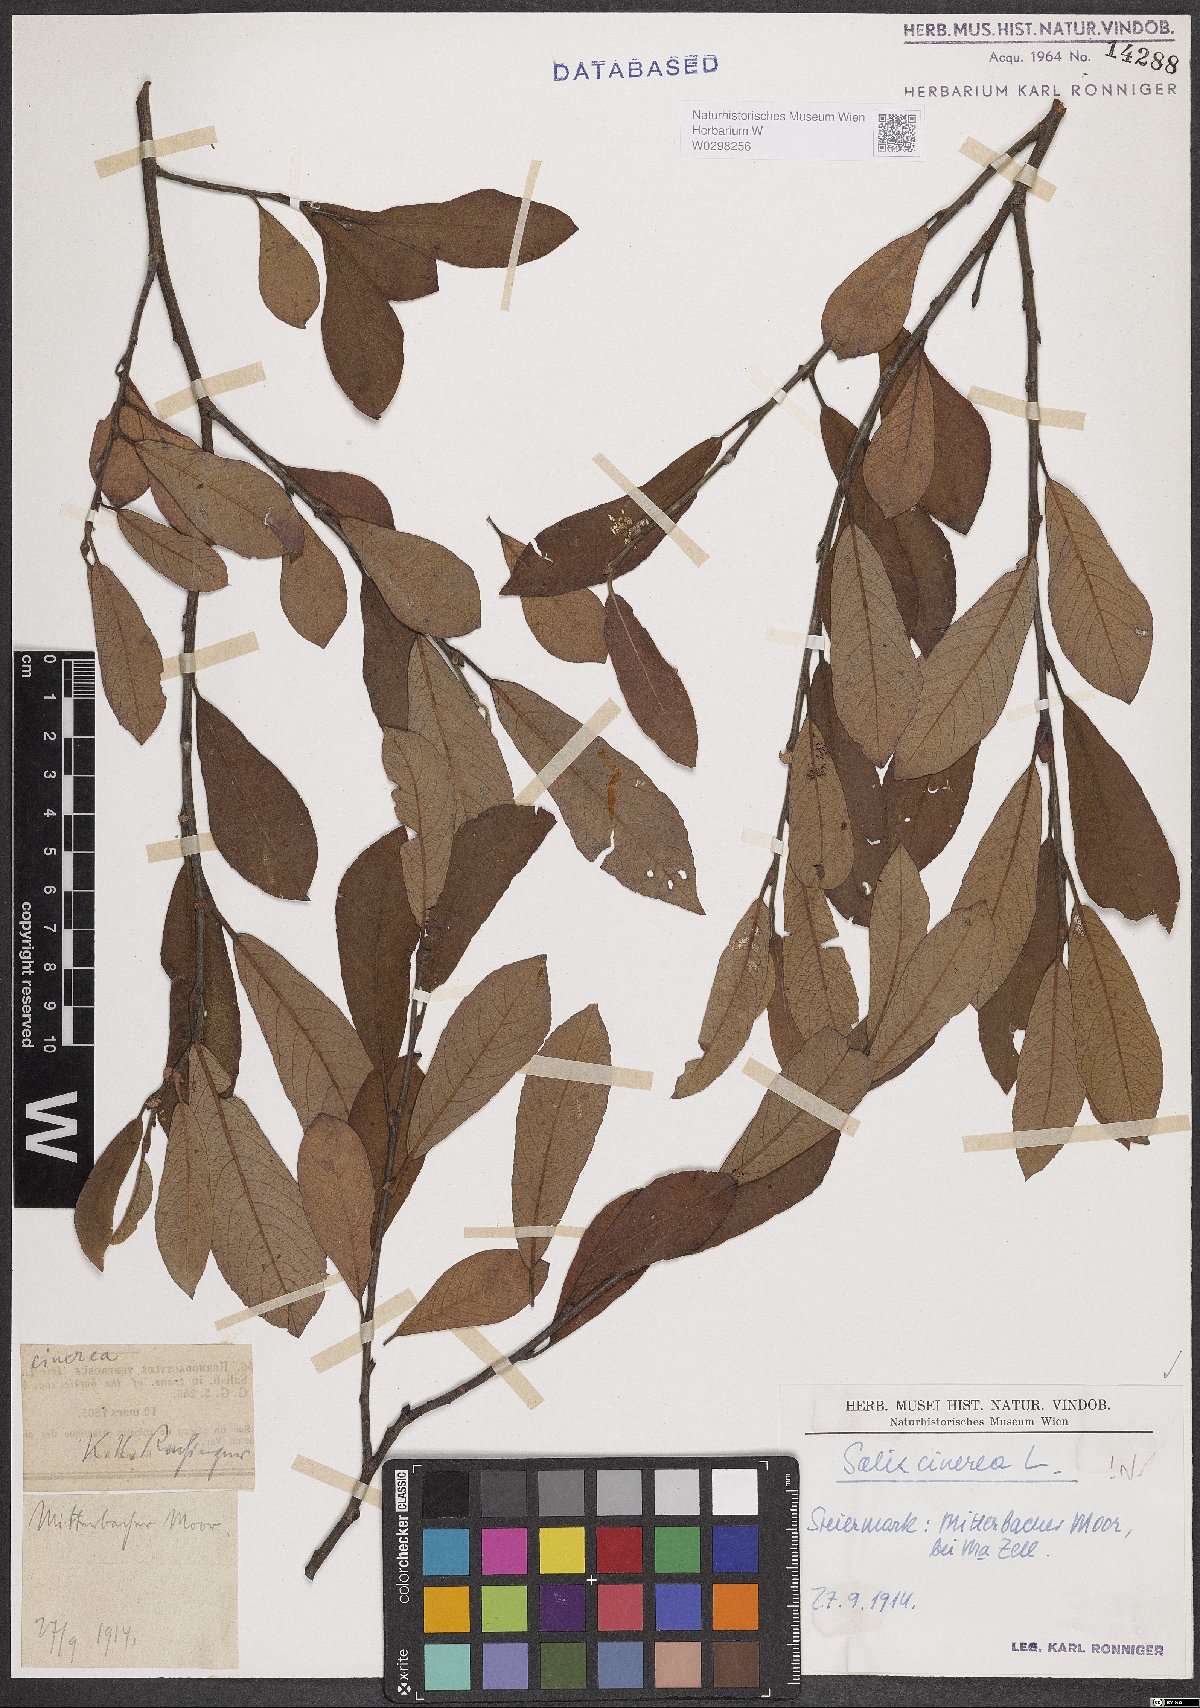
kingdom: Plantae
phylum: Tracheophyta
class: Magnoliopsida
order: Malpighiales
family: Salicaceae
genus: Salix
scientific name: Salix cinerea
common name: Common sallow
